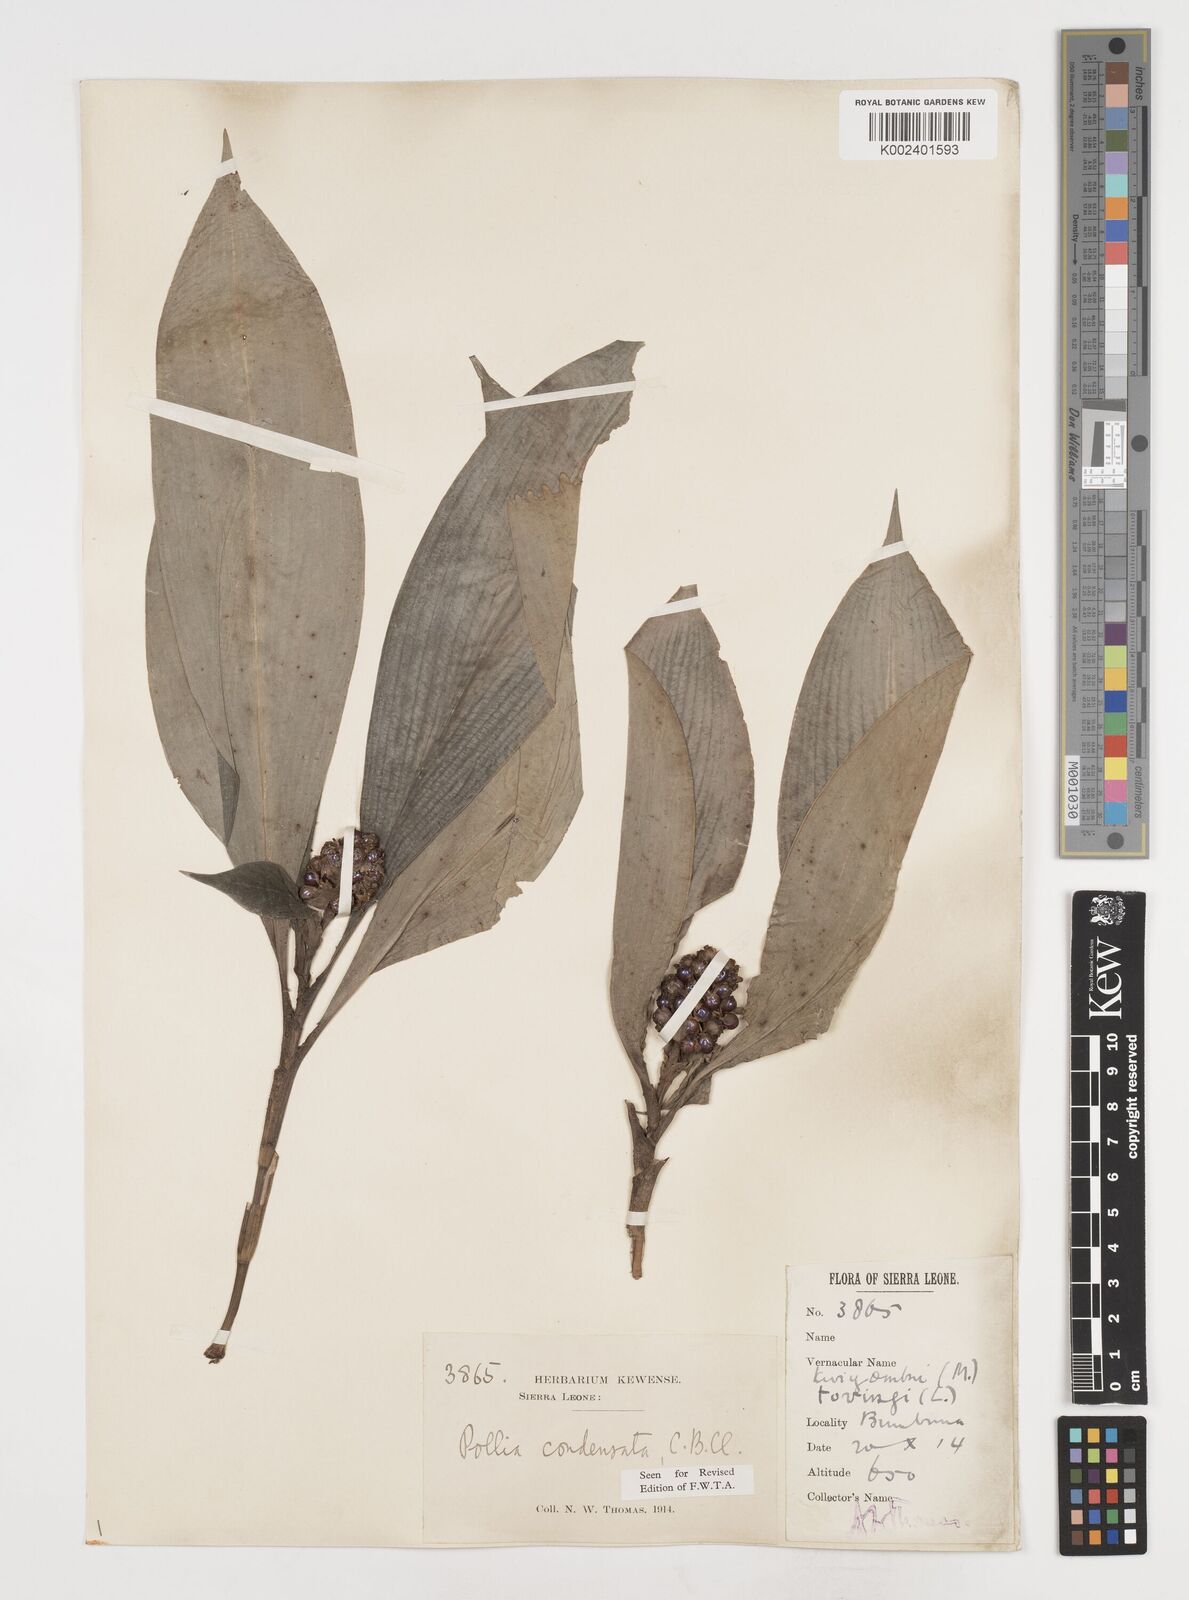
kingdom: Plantae
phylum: Tracheophyta
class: Liliopsida
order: Commelinales
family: Commelinaceae
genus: Pollia
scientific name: Pollia condensata
